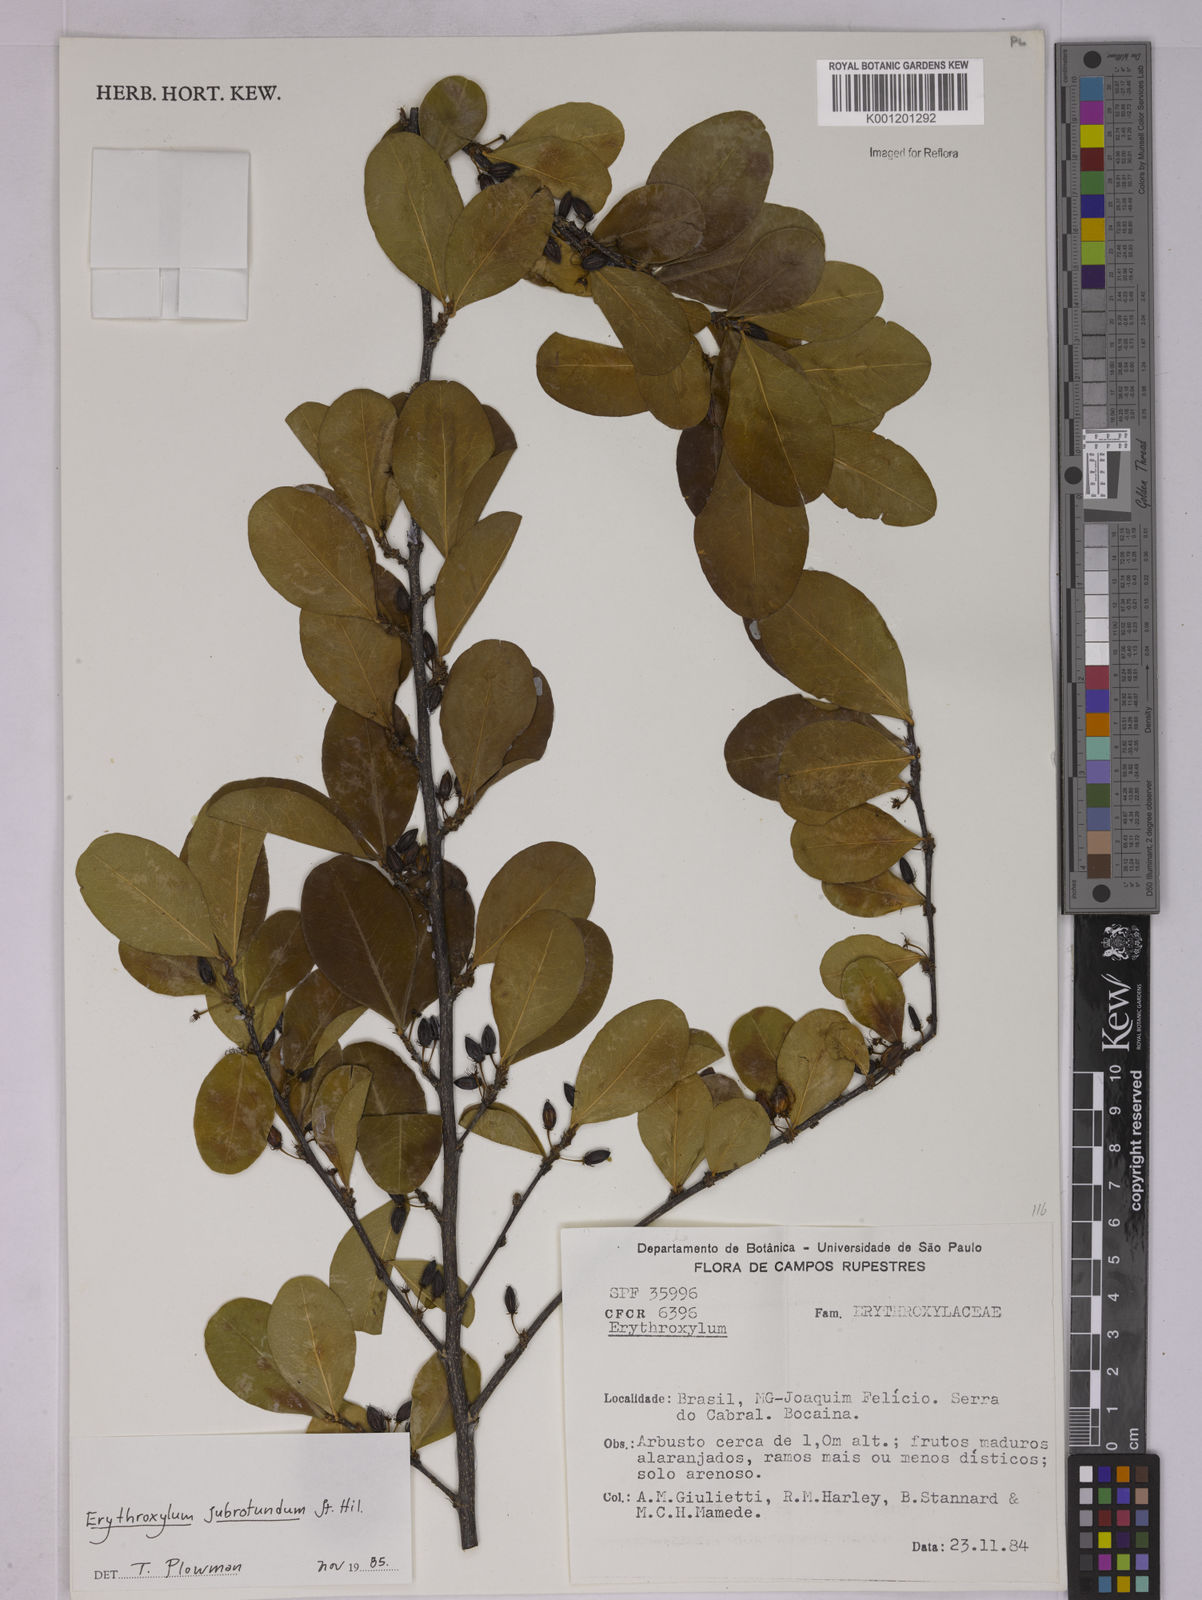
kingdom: Plantae
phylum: Tracheophyta
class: Magnoliopsida
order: Malpighiales
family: Erythroxylaceae
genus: Erythroxylum
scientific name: Erythroxylum subrotundum
